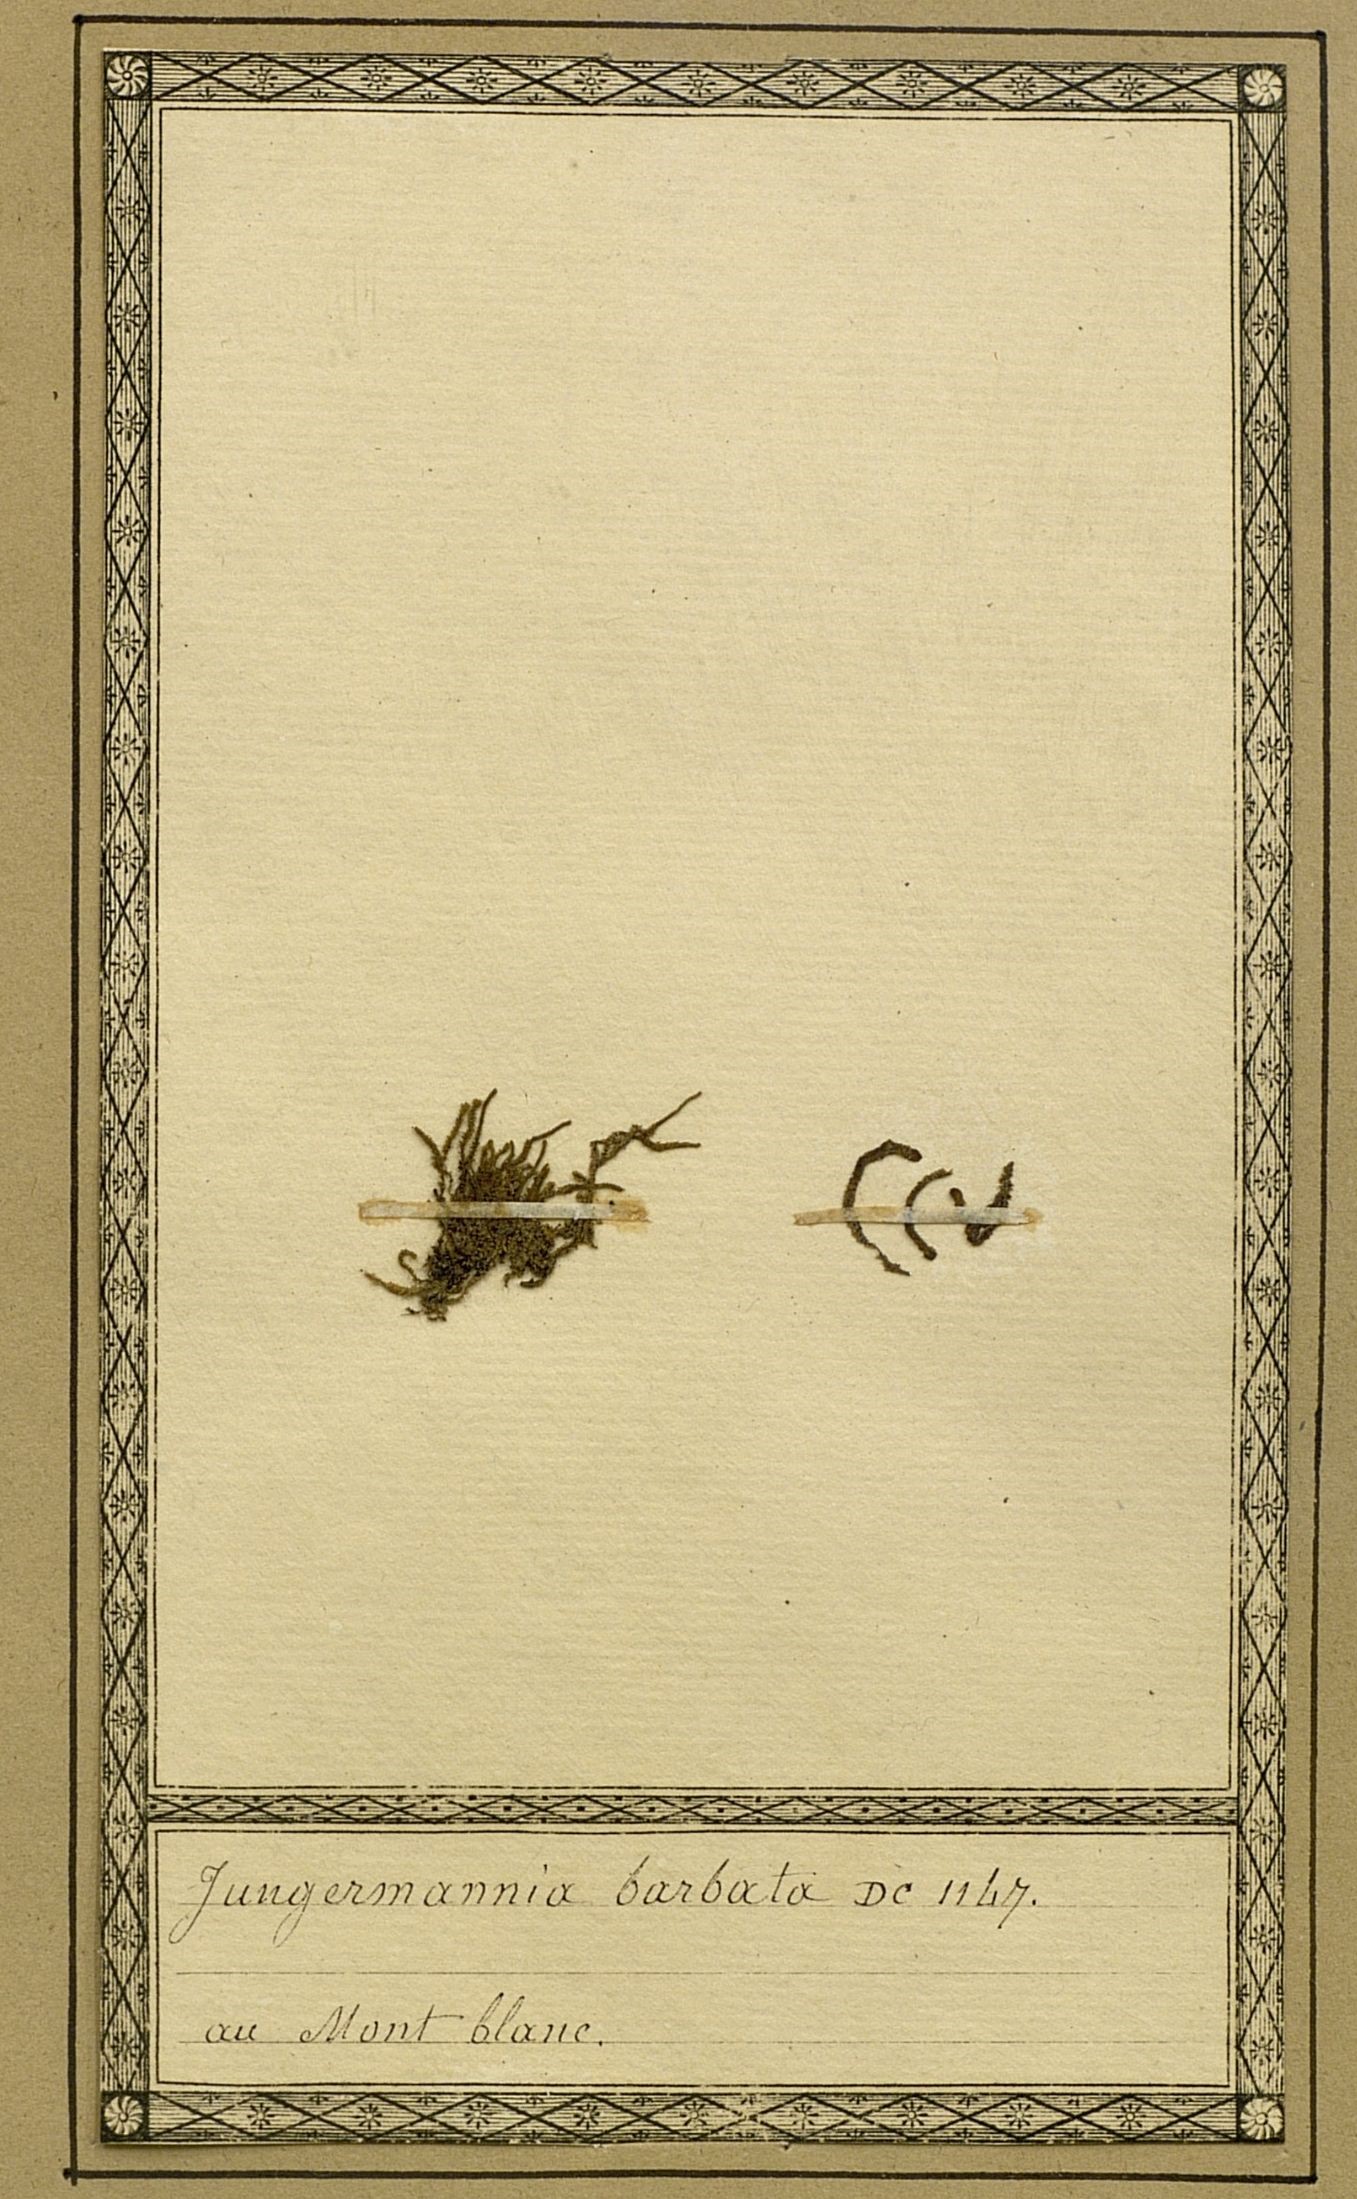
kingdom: Plantae
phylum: Marchantiophyta
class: Jungermanniopsida
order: Jungermanniales
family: Anastrophyllaceae
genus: Barbilophozia
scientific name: Barbilophozia barbata
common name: Bearded pawwort
